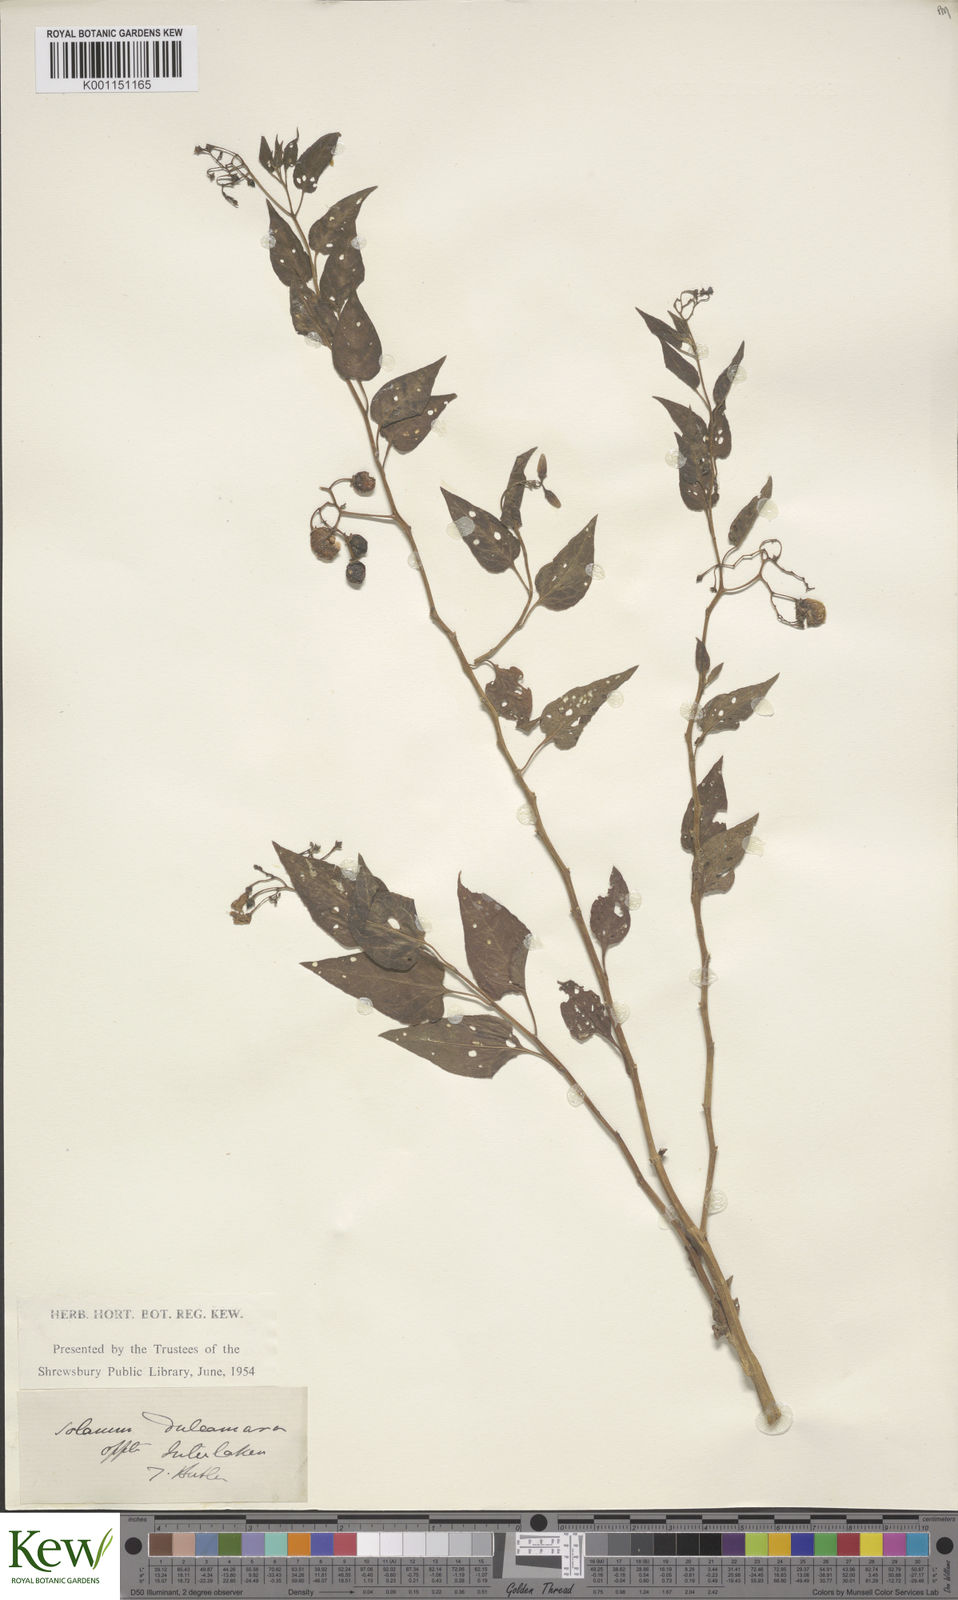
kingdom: Plantae
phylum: Tracheophyta
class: Magnoliopsida
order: Solanales
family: Solanaceae
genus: Solanum
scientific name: Solanum dulcamara
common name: Climbing nightshade
